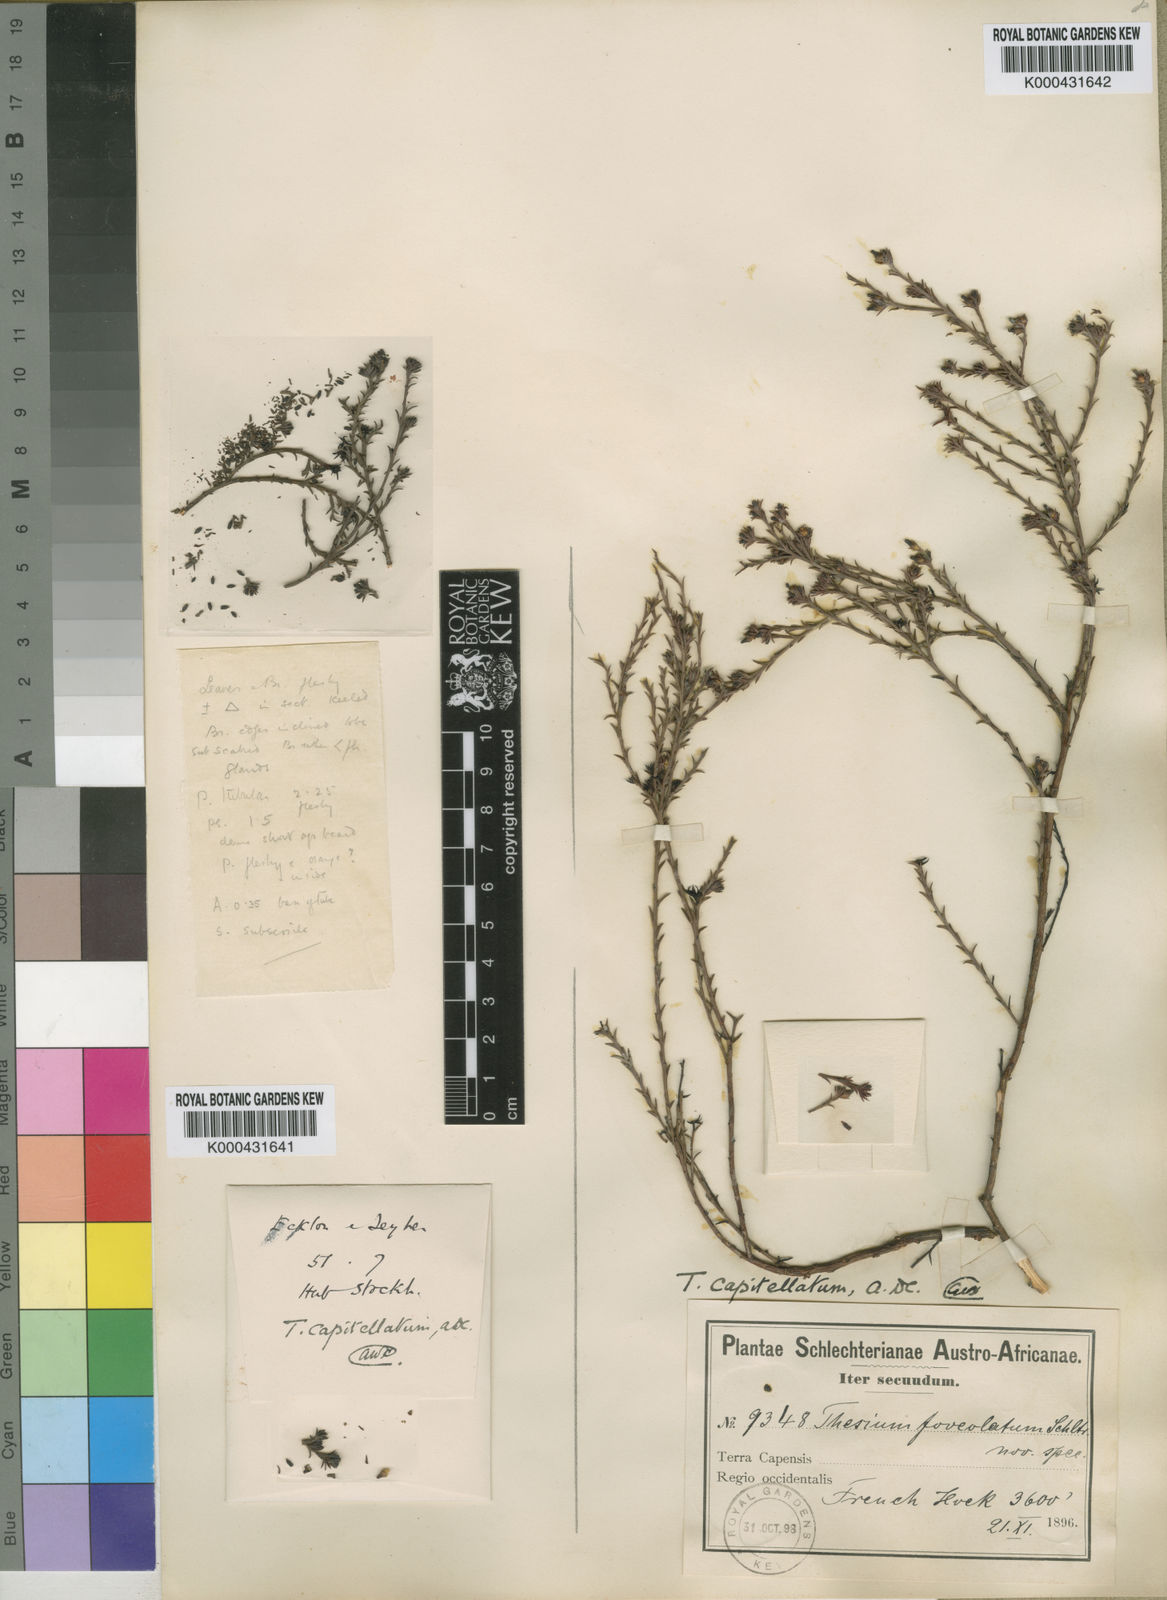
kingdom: Plantae
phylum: Tracheophyta
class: Magnoliopsida
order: Santalales
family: Thesiaceae
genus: Thesium
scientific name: Thesium capitellatum
